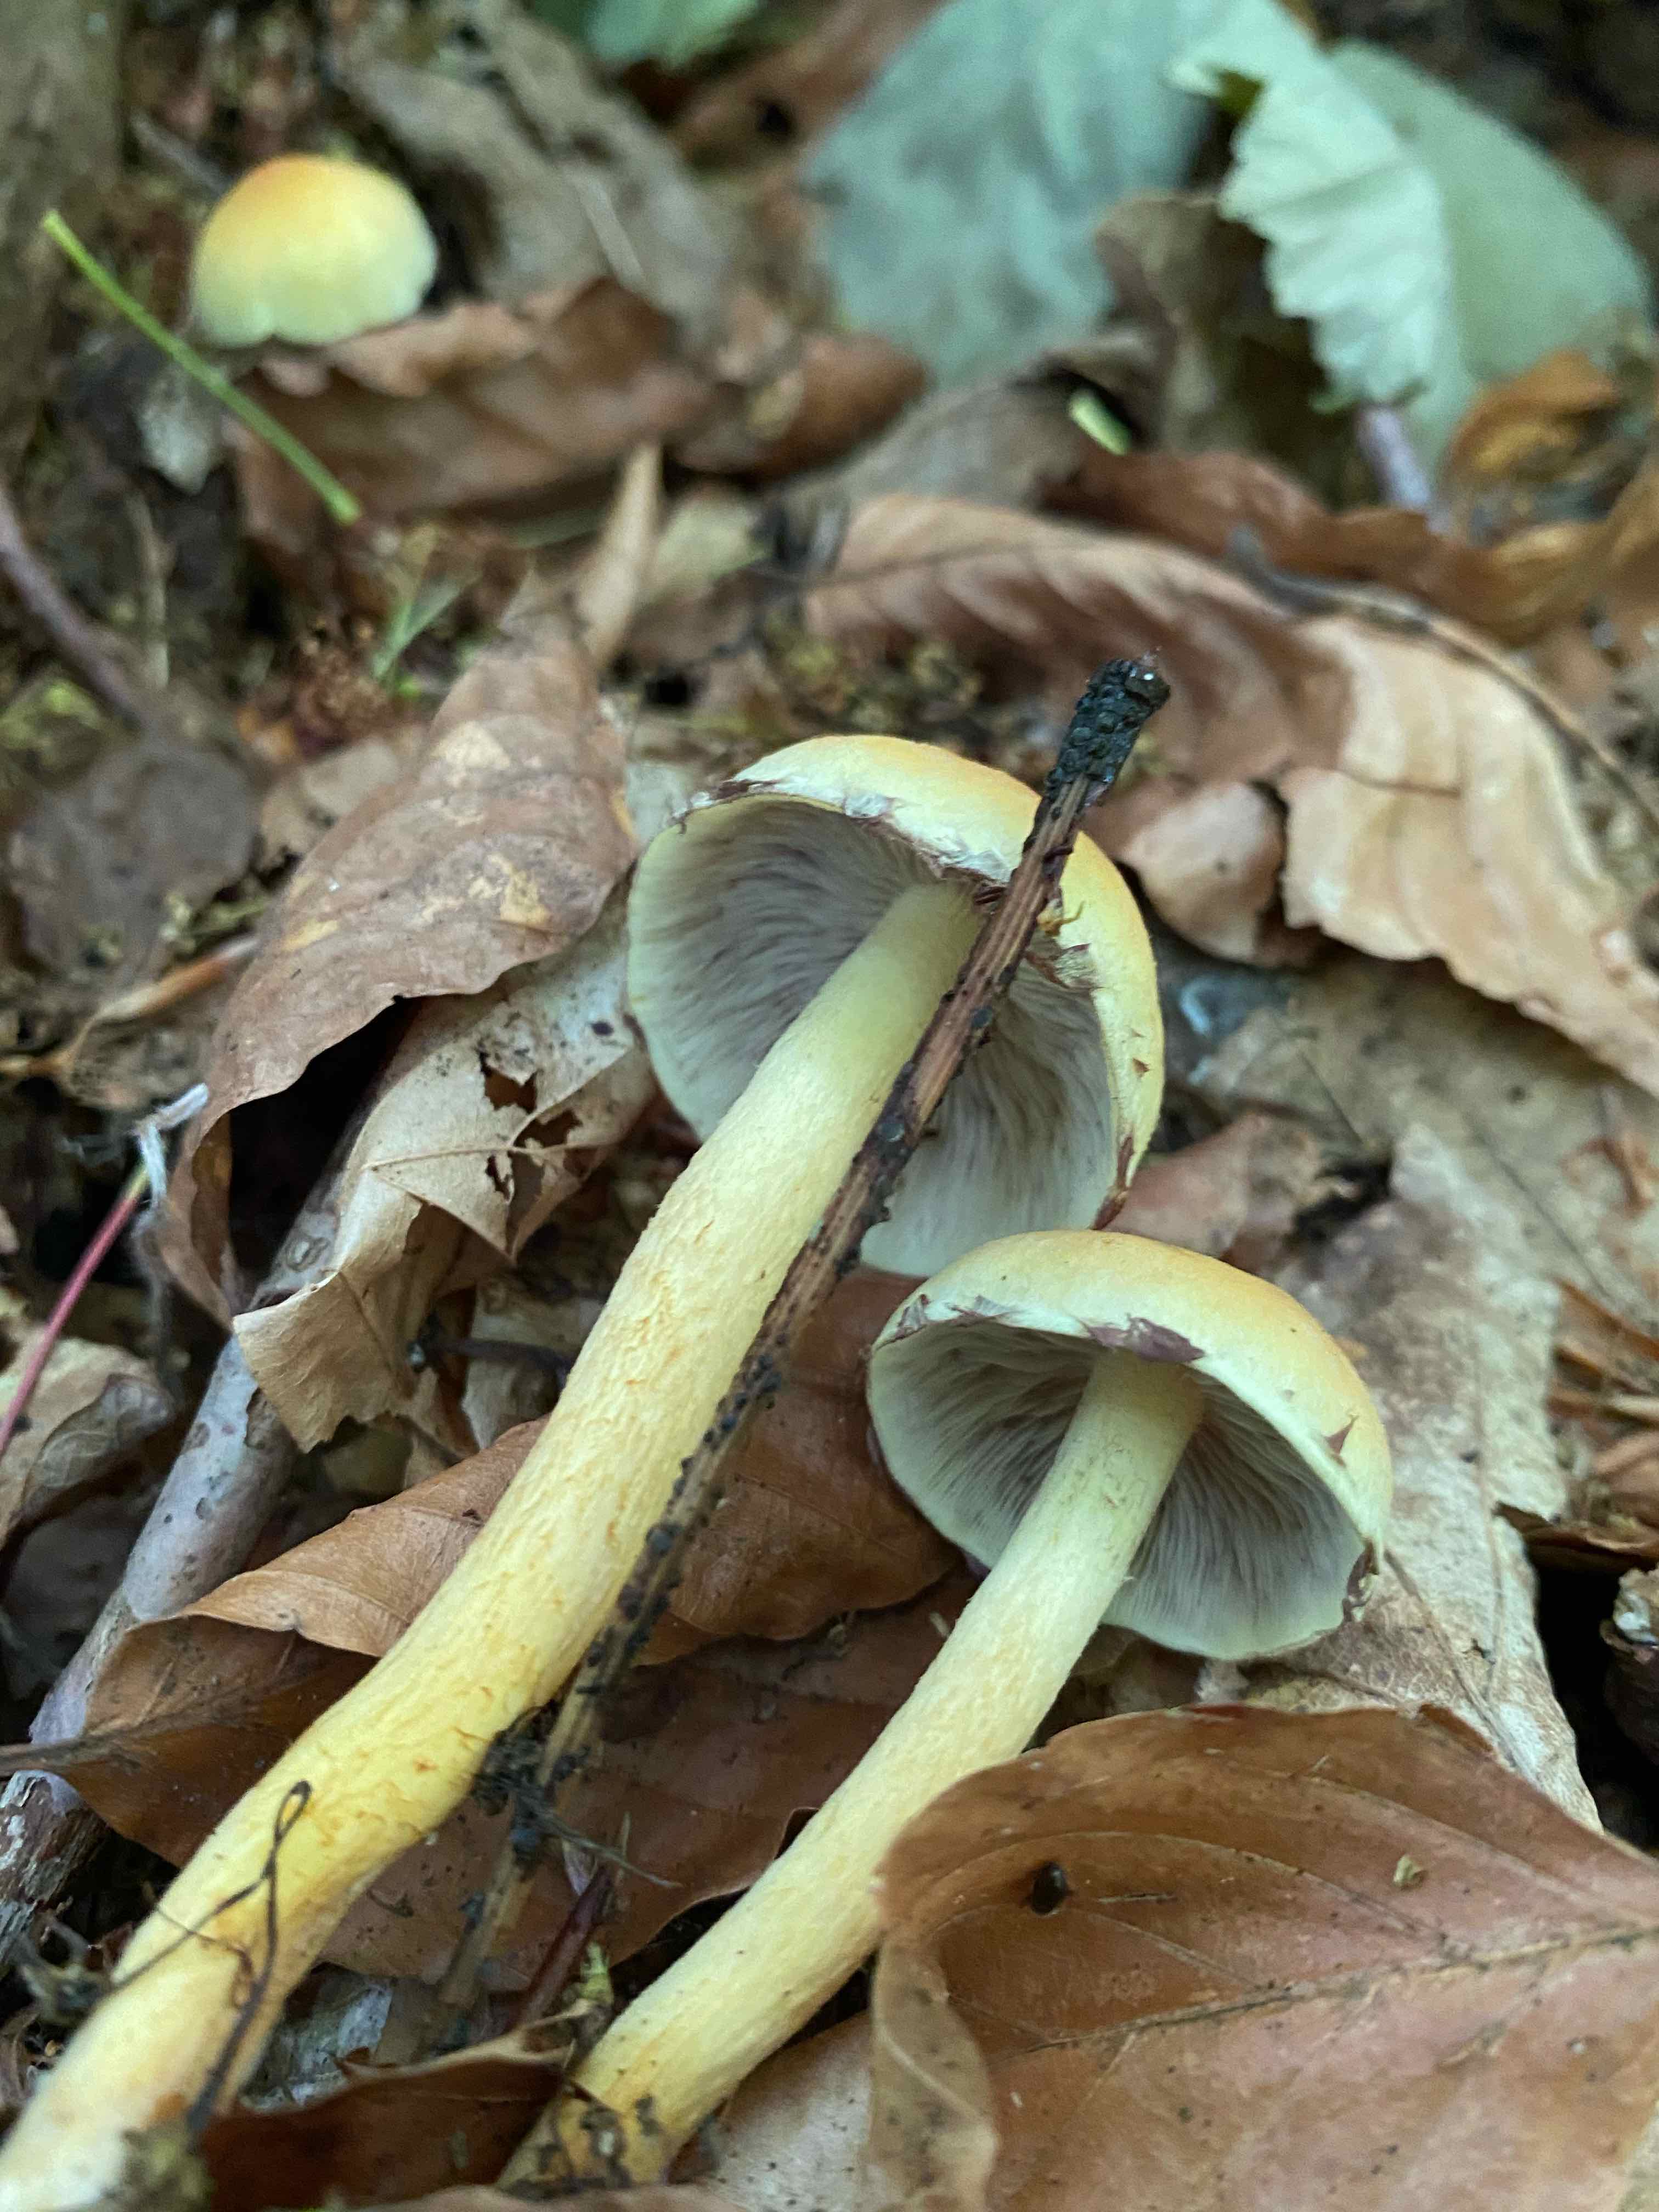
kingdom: Fungi
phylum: Basidiomycota
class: Agaricomycetes
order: Agaricales
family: Strophariaceae
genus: Hypholoma
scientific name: Hypholoma fasciculare
